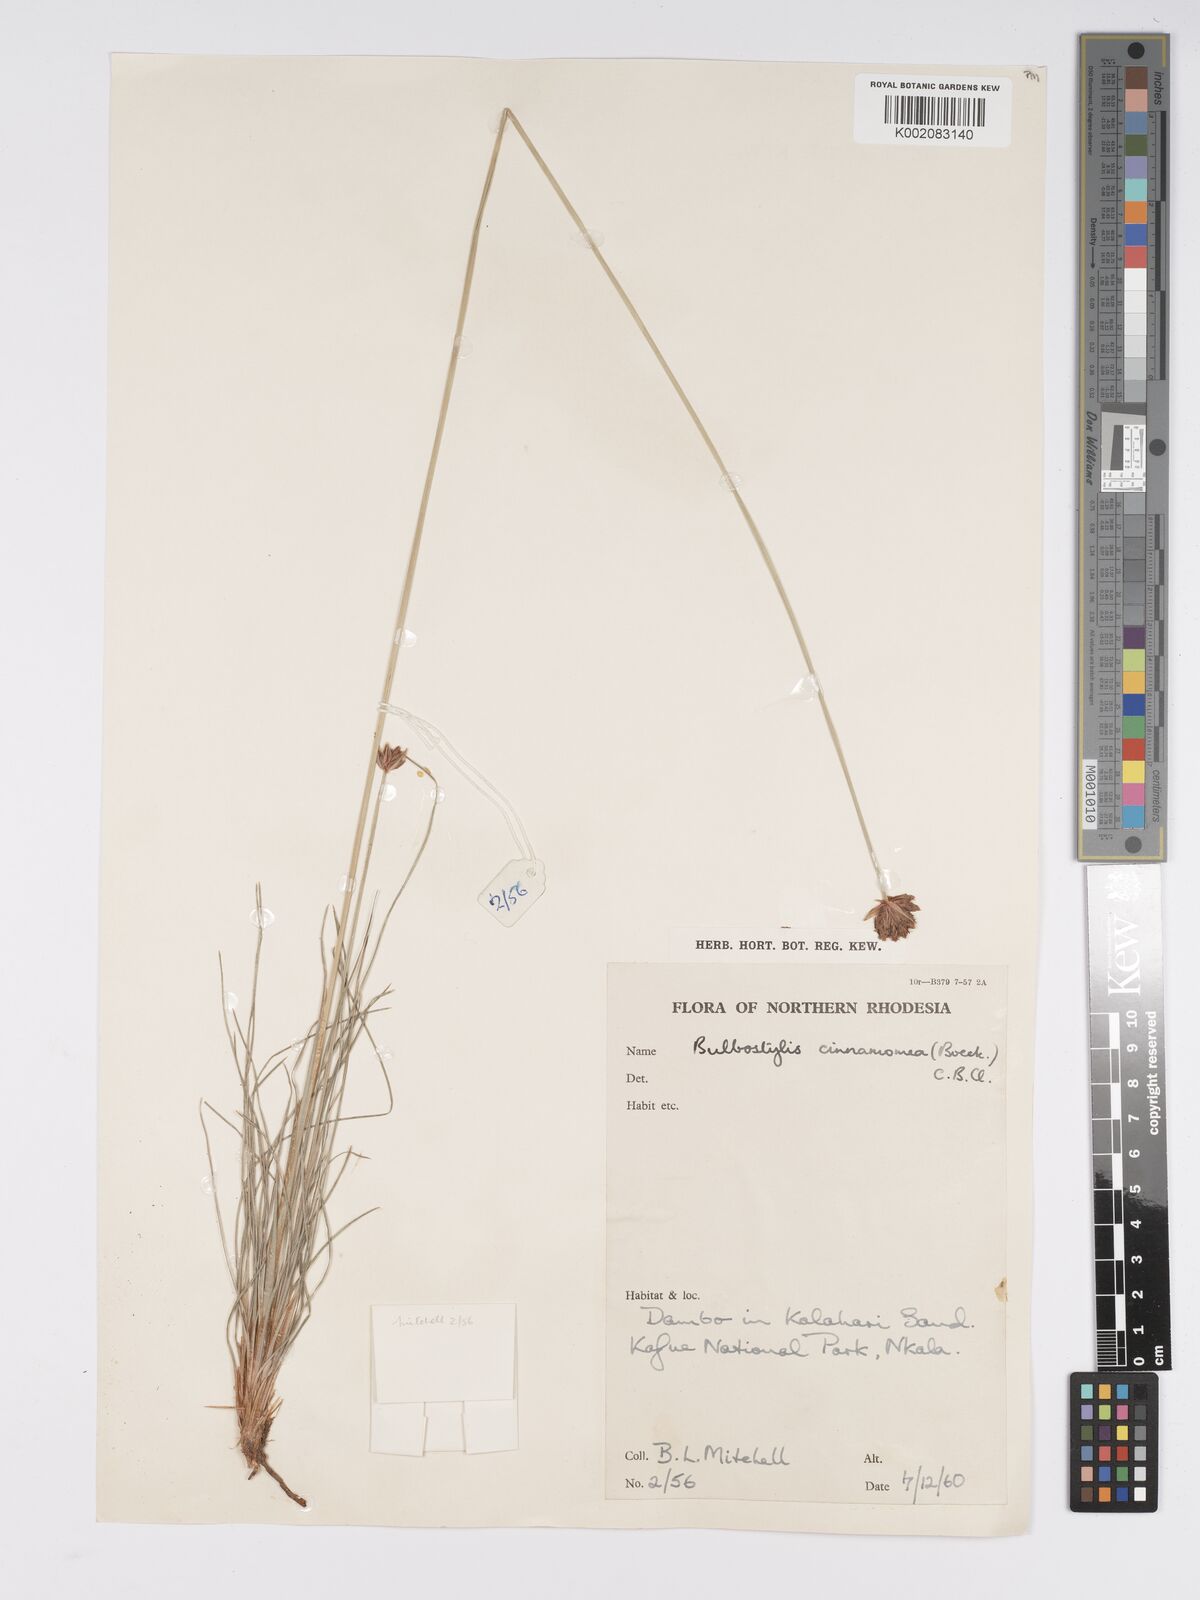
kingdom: Plantae
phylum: Tracheophyta
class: Liliopsida
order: Poales
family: Cyperaceae
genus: Bulbostylis
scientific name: Bulbostylis schoenoides
